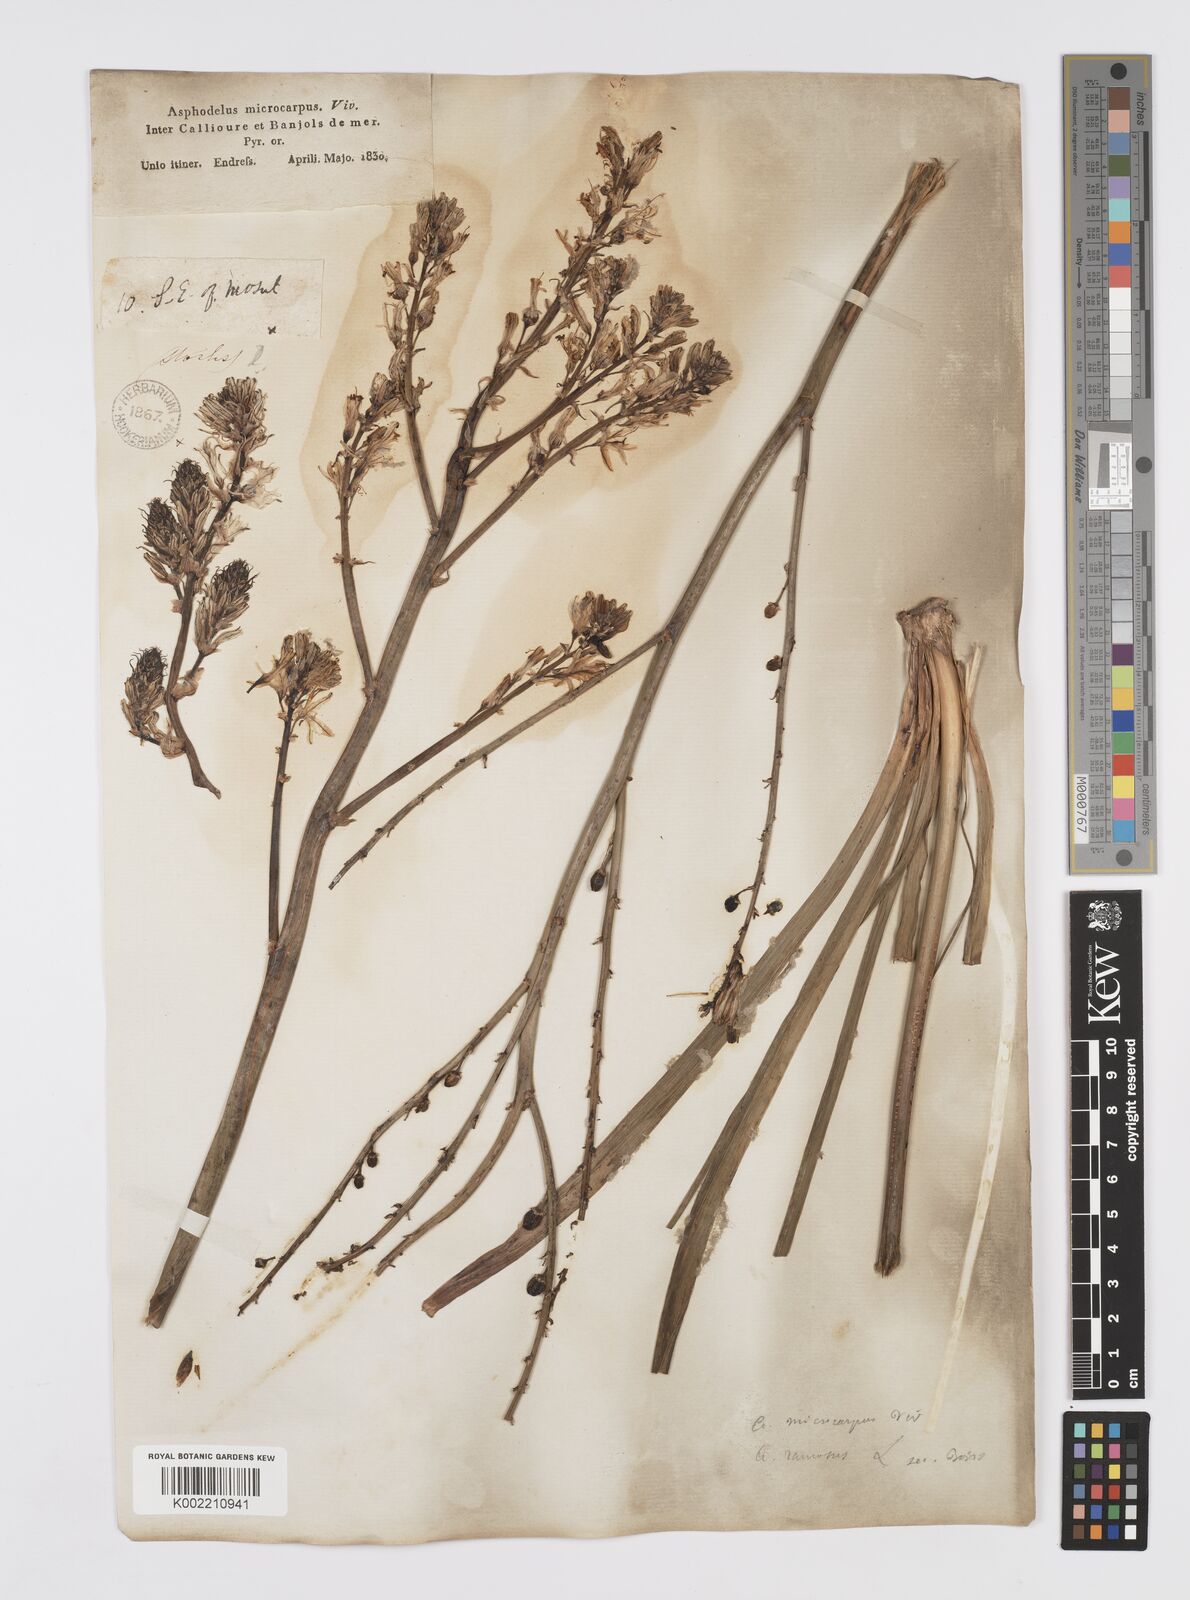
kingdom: Plantae
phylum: Tracheophyta
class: Liliopsida
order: Asparagales
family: Asphodelaceae
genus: Asphodelus
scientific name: Asphodelus ramosus
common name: Silverrod
